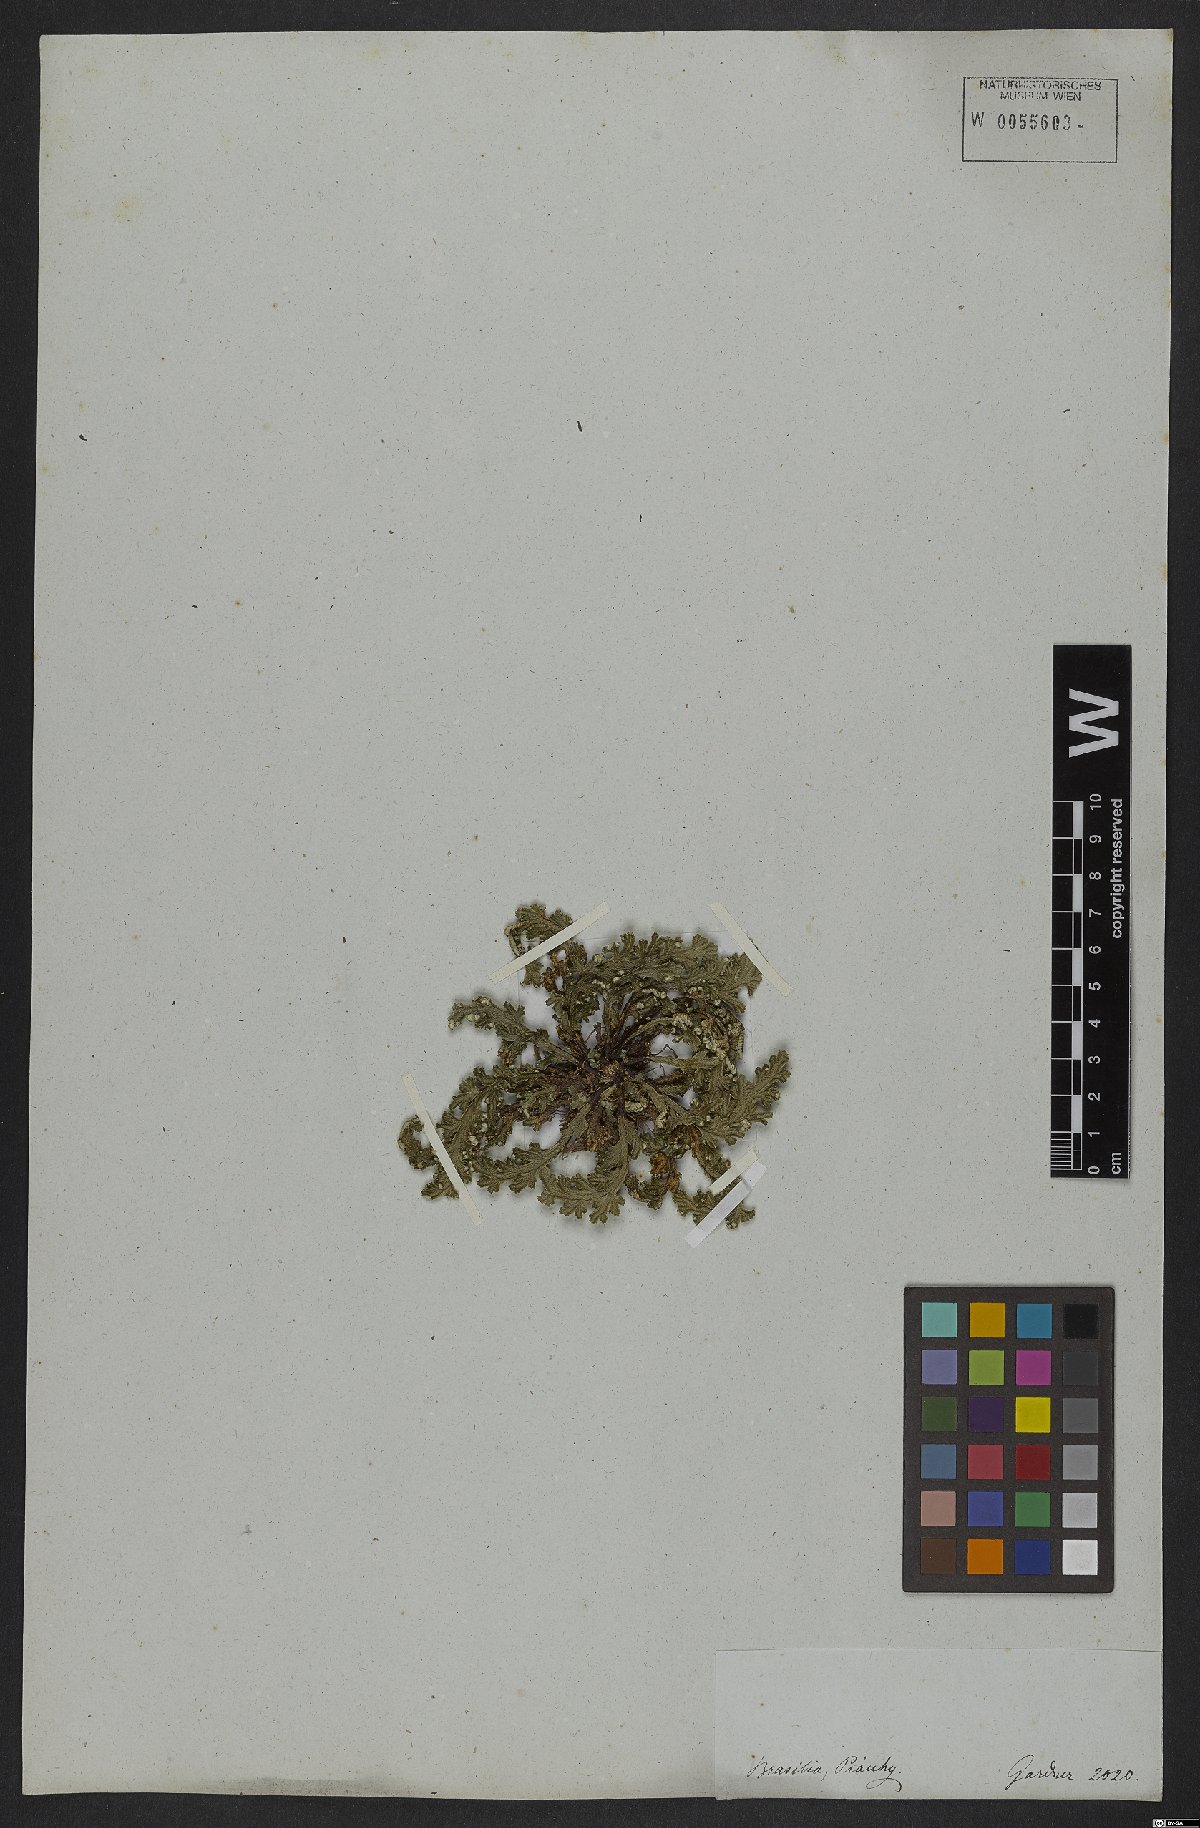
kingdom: Plantae
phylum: Tracheophyta
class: Lycopodiopsida
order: Selaginellales
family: Selaginellaceae
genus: Selaginella
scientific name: Selaginella convoluta
